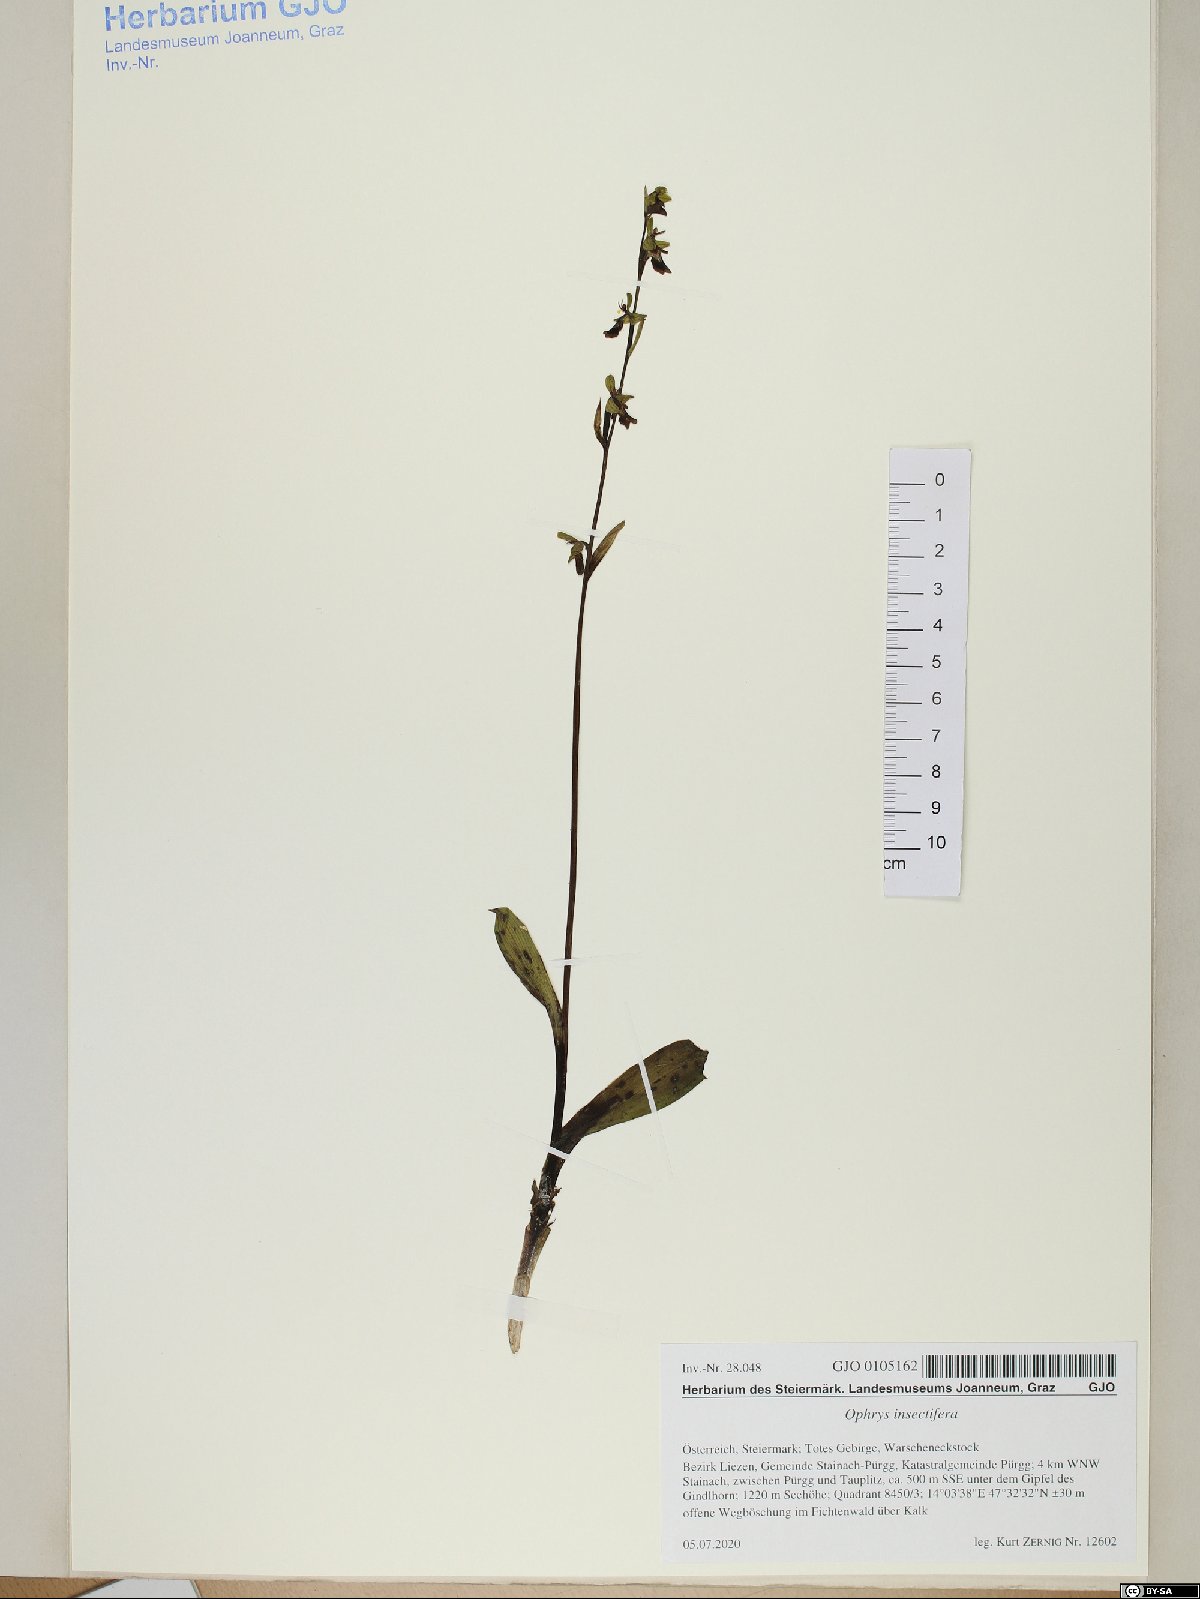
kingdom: Plantae
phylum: Tracheophyta
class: Liliopsida
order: Asparagales
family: Orchidaceae
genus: Ophrys
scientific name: Ophrys insectifera
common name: Fly orchid
